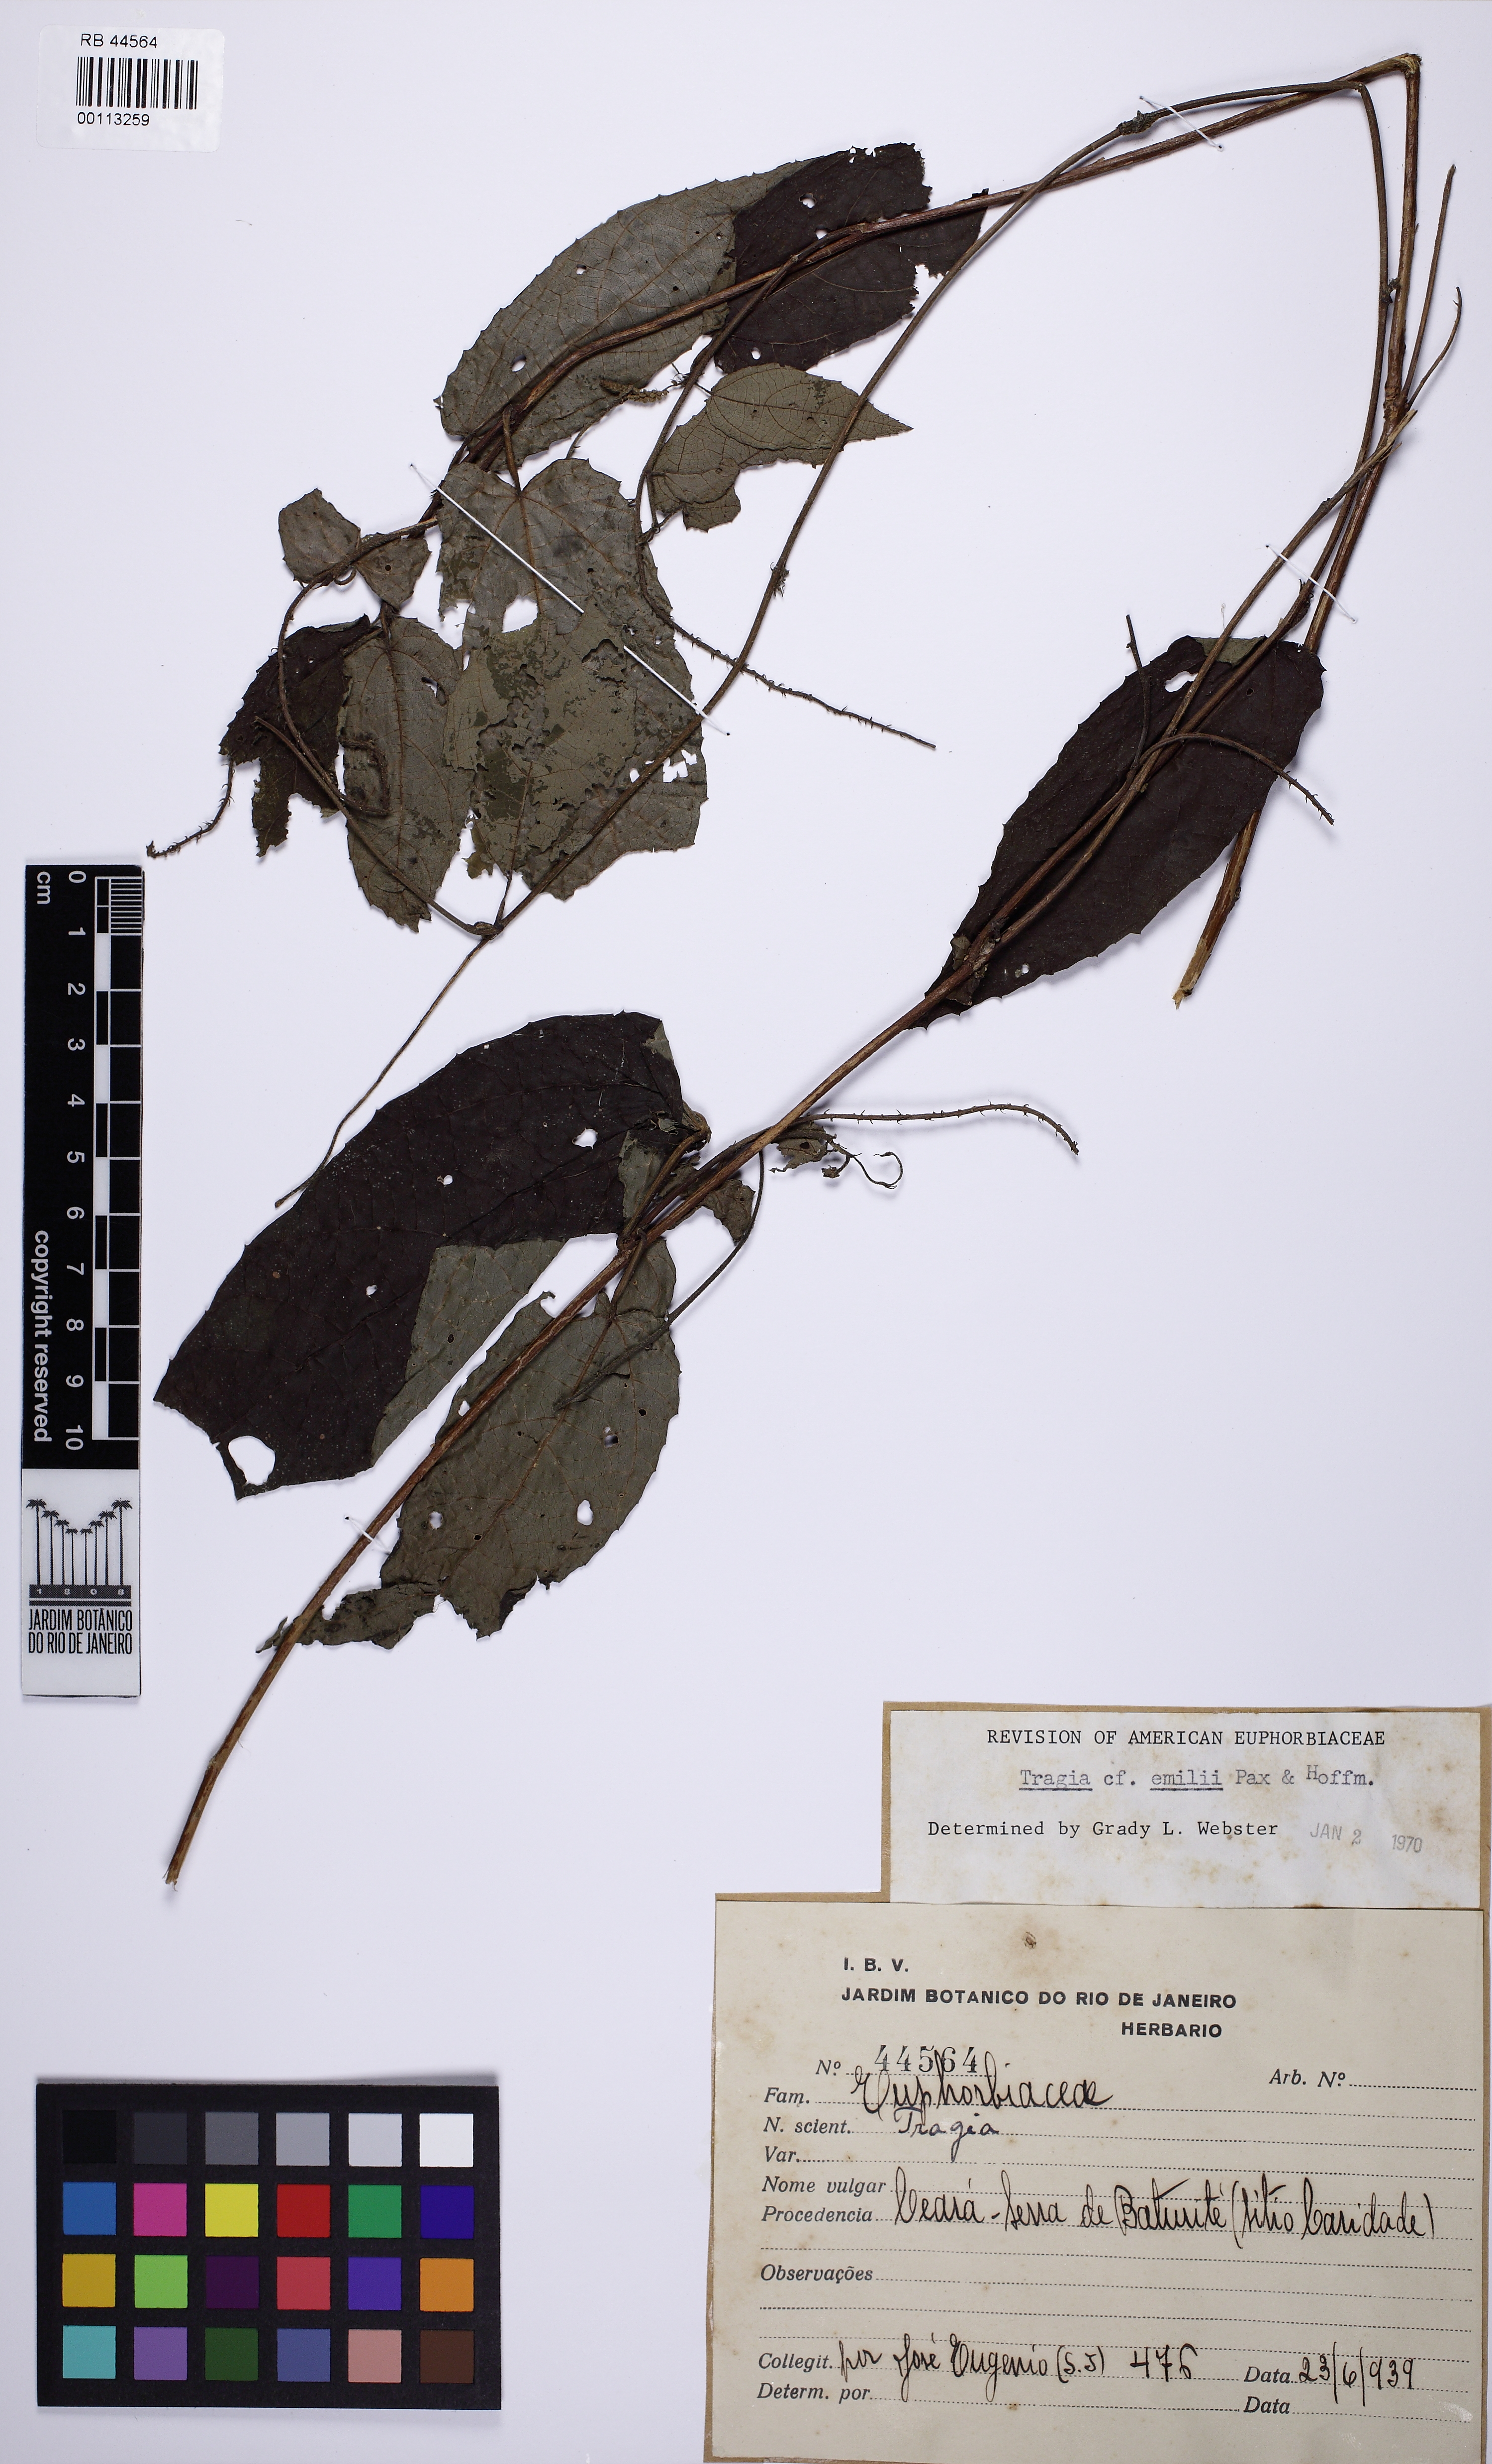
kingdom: Plantae
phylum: Tracheophyta
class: Magnoliopsida
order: Malpighiales
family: Euphorbiaceae
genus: Bia
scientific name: Bia lessertiana
